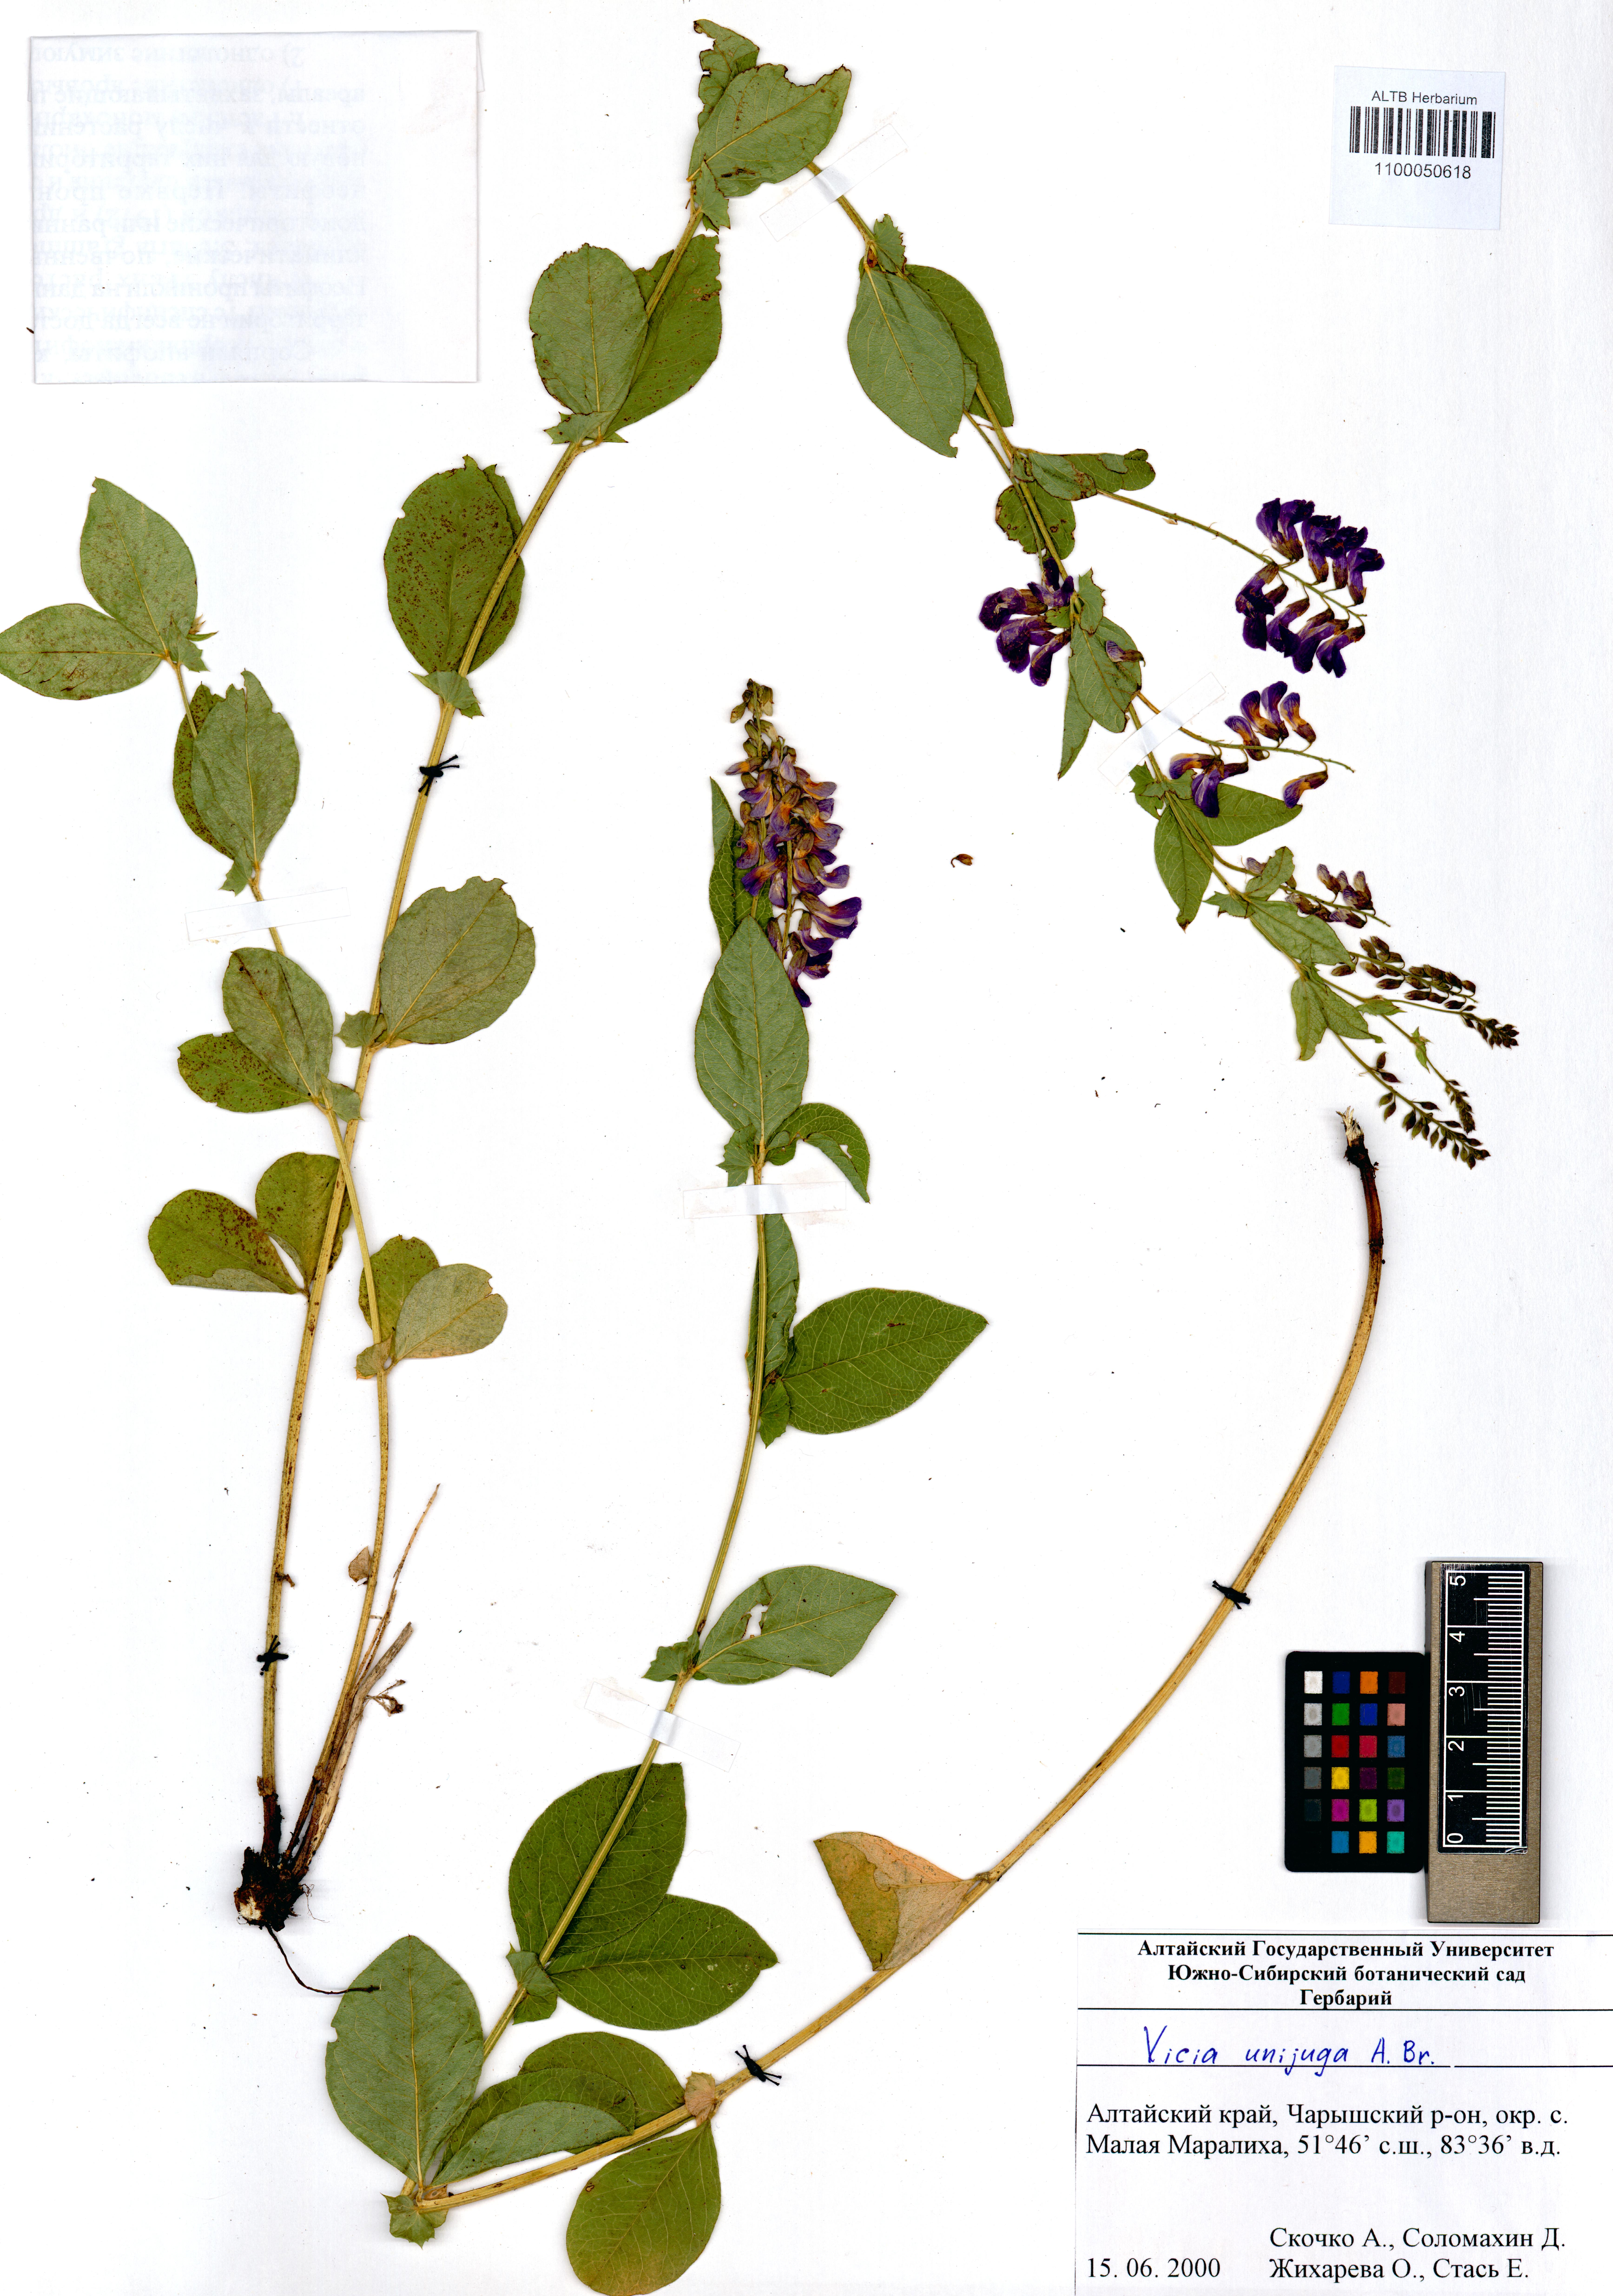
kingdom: Plantae
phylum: Tracheophyta
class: Magnoliopsida
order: Fabales
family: Fabaceae
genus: Vicia
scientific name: Vicia unijuga
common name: Two-leaf vetch
